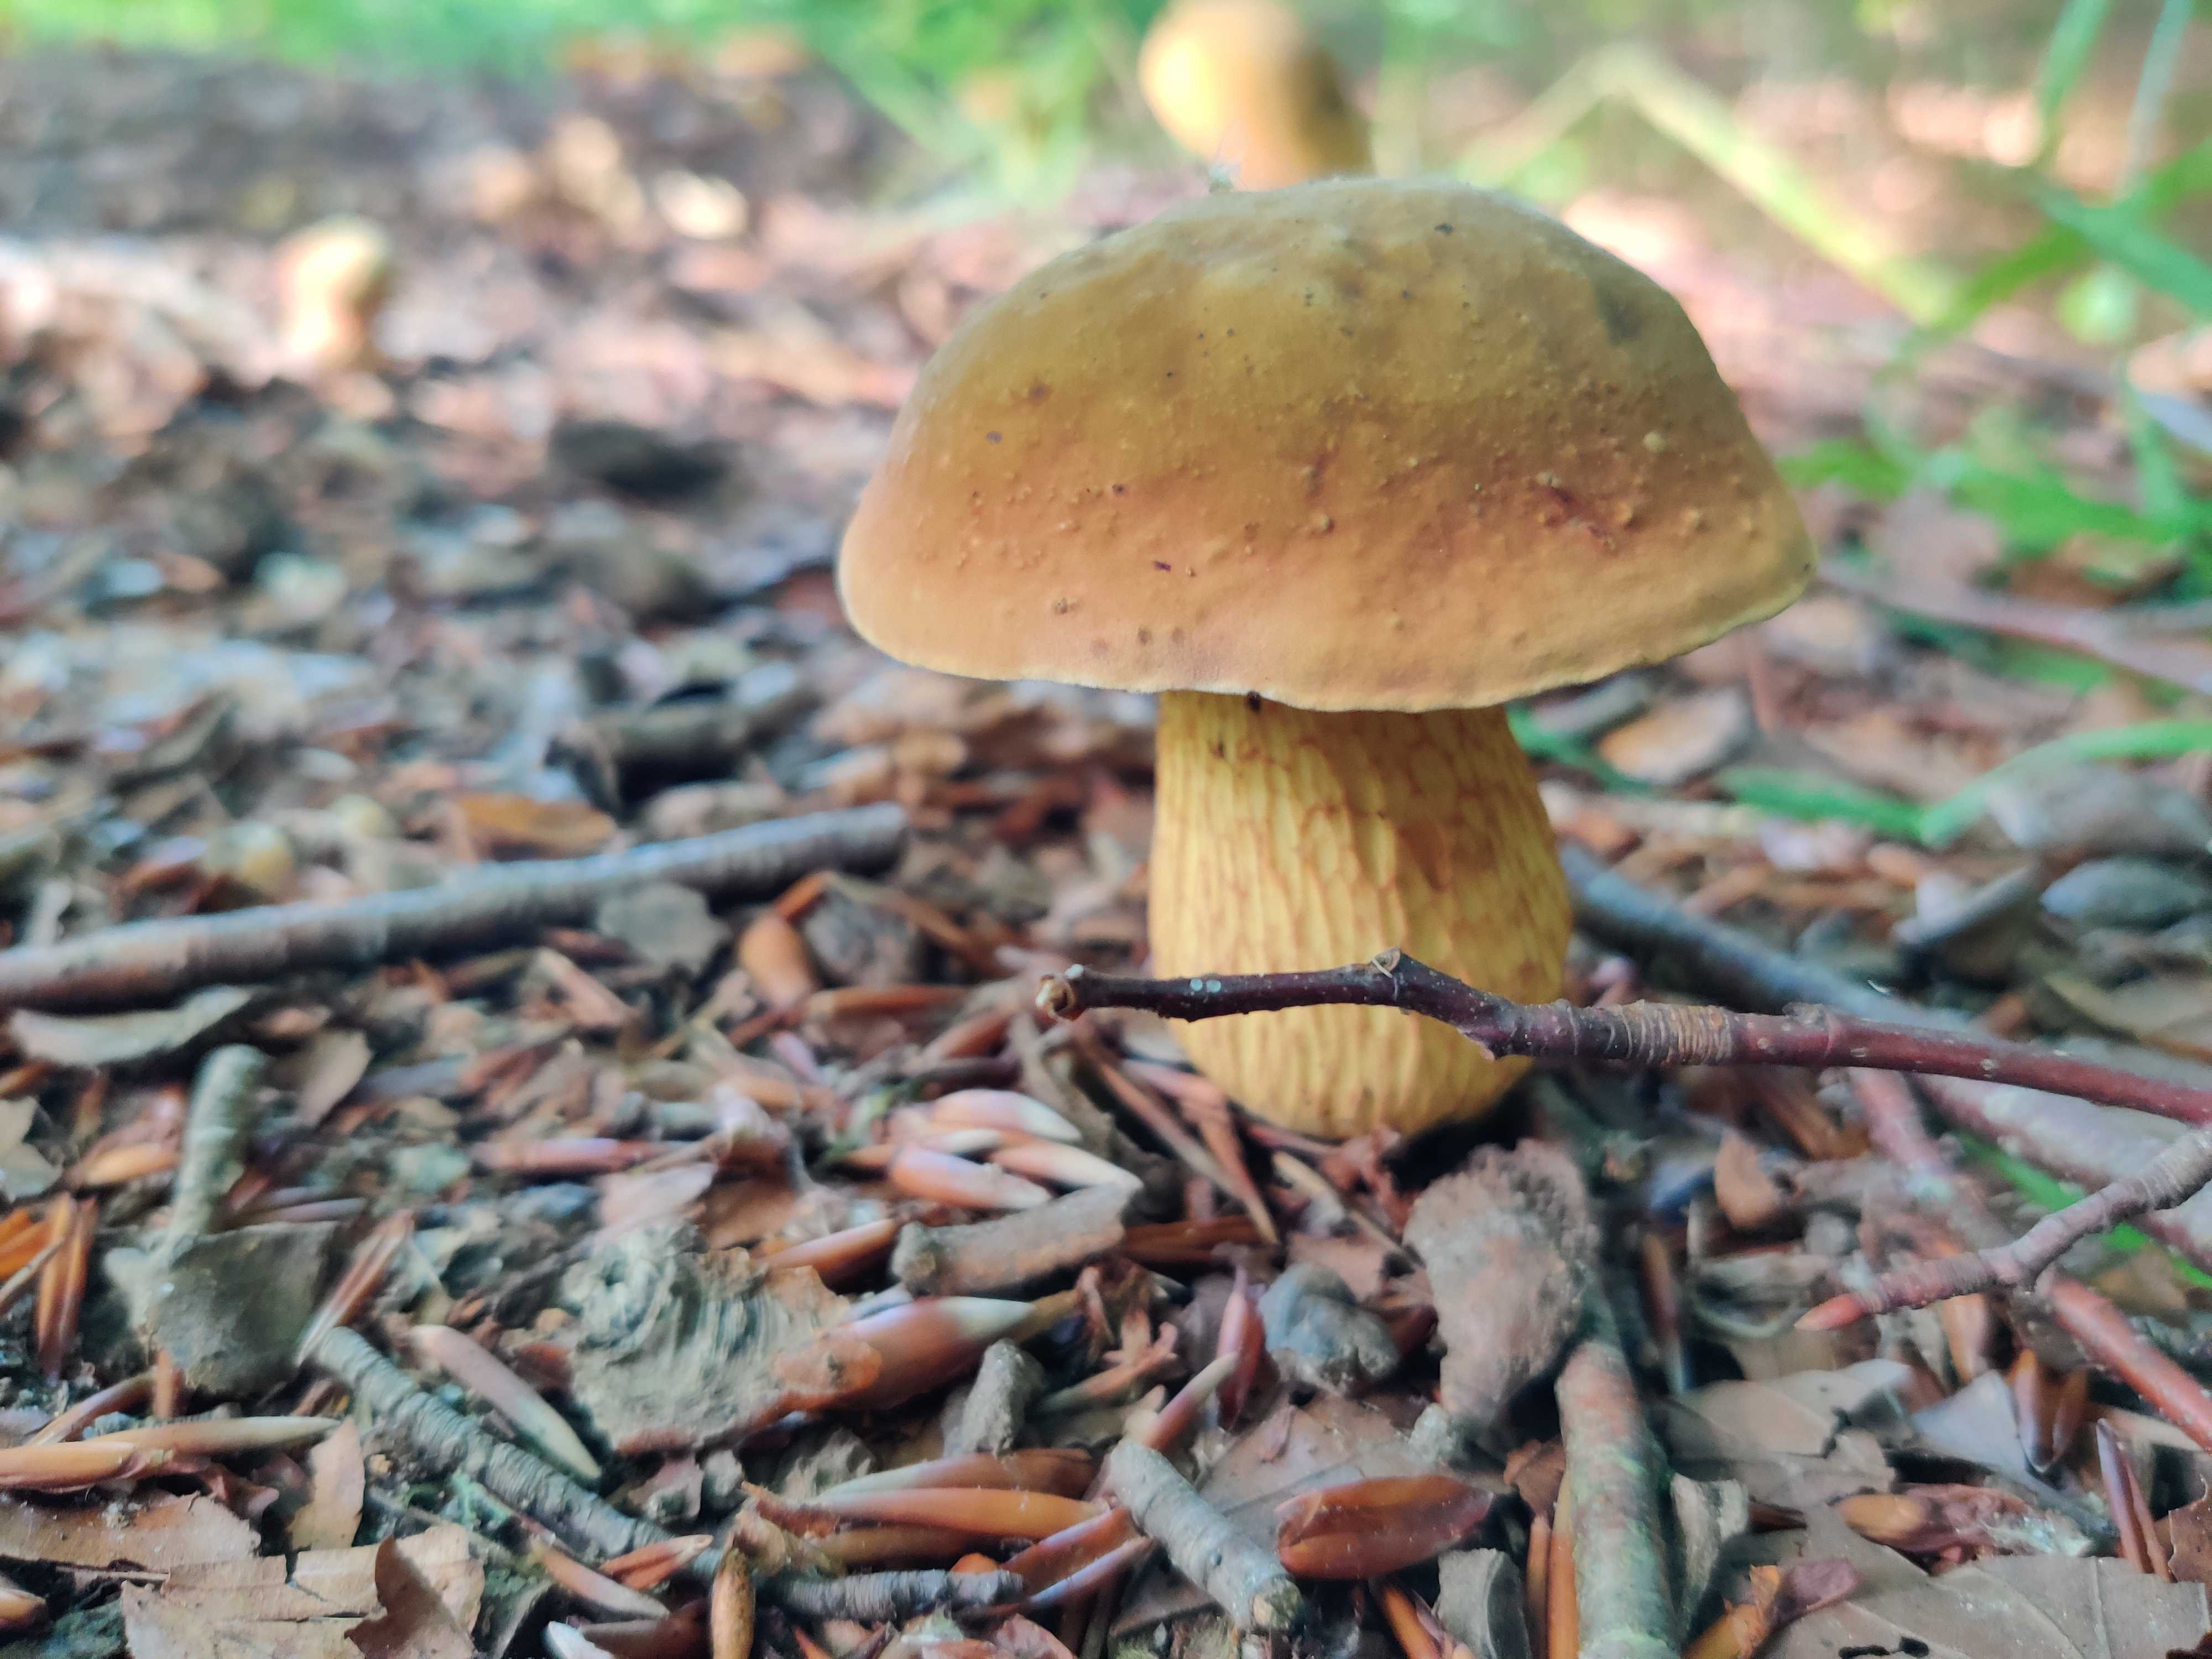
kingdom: Fungi
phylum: Basidiomycota
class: Agaricomycetes
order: Boletales
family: Boletaceae
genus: Suillellus
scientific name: Suillellus luridus
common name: netstokket indigorørhat
